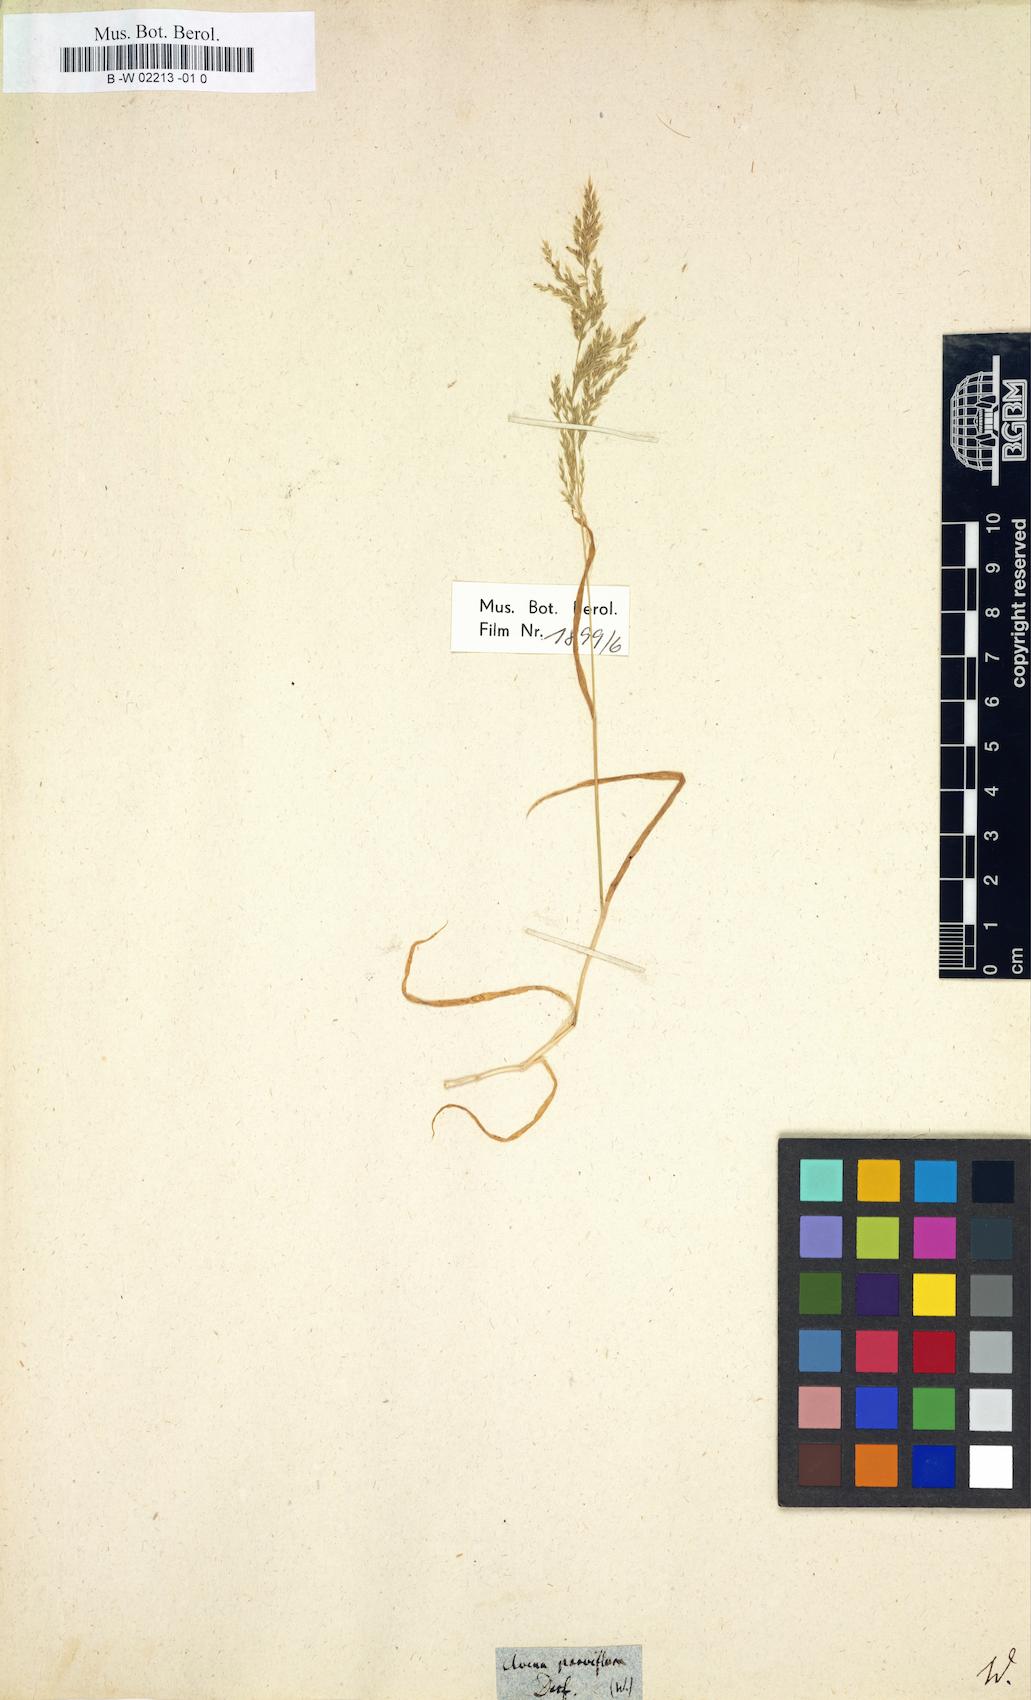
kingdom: Plantae
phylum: Tracheophyta
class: Liliopsida
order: Poales
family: Poaceae
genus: Trisetaria
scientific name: Trisetaria parviflora
